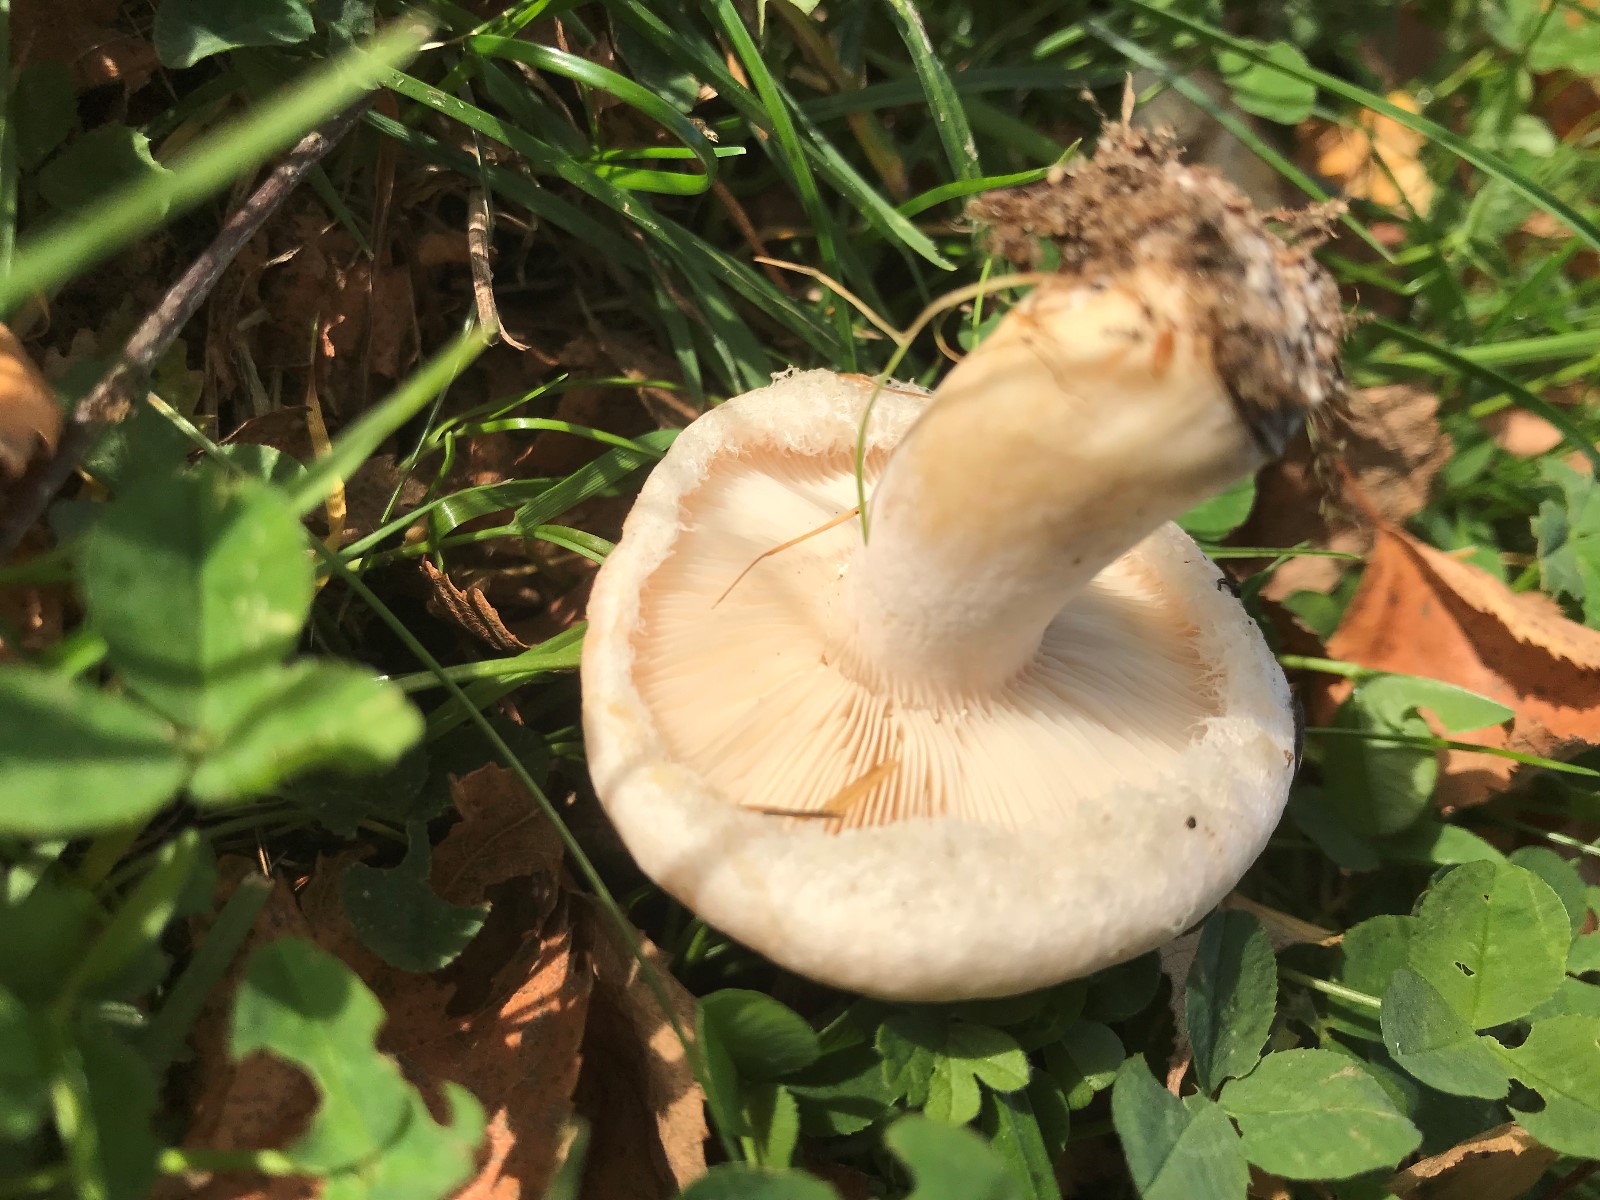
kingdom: Fungi
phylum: Basidiomycota
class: Agaricomycetes
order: Russulales
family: Russulaceae
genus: Lactarius
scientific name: Lactarius pubescens
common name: dunet mælkehat
